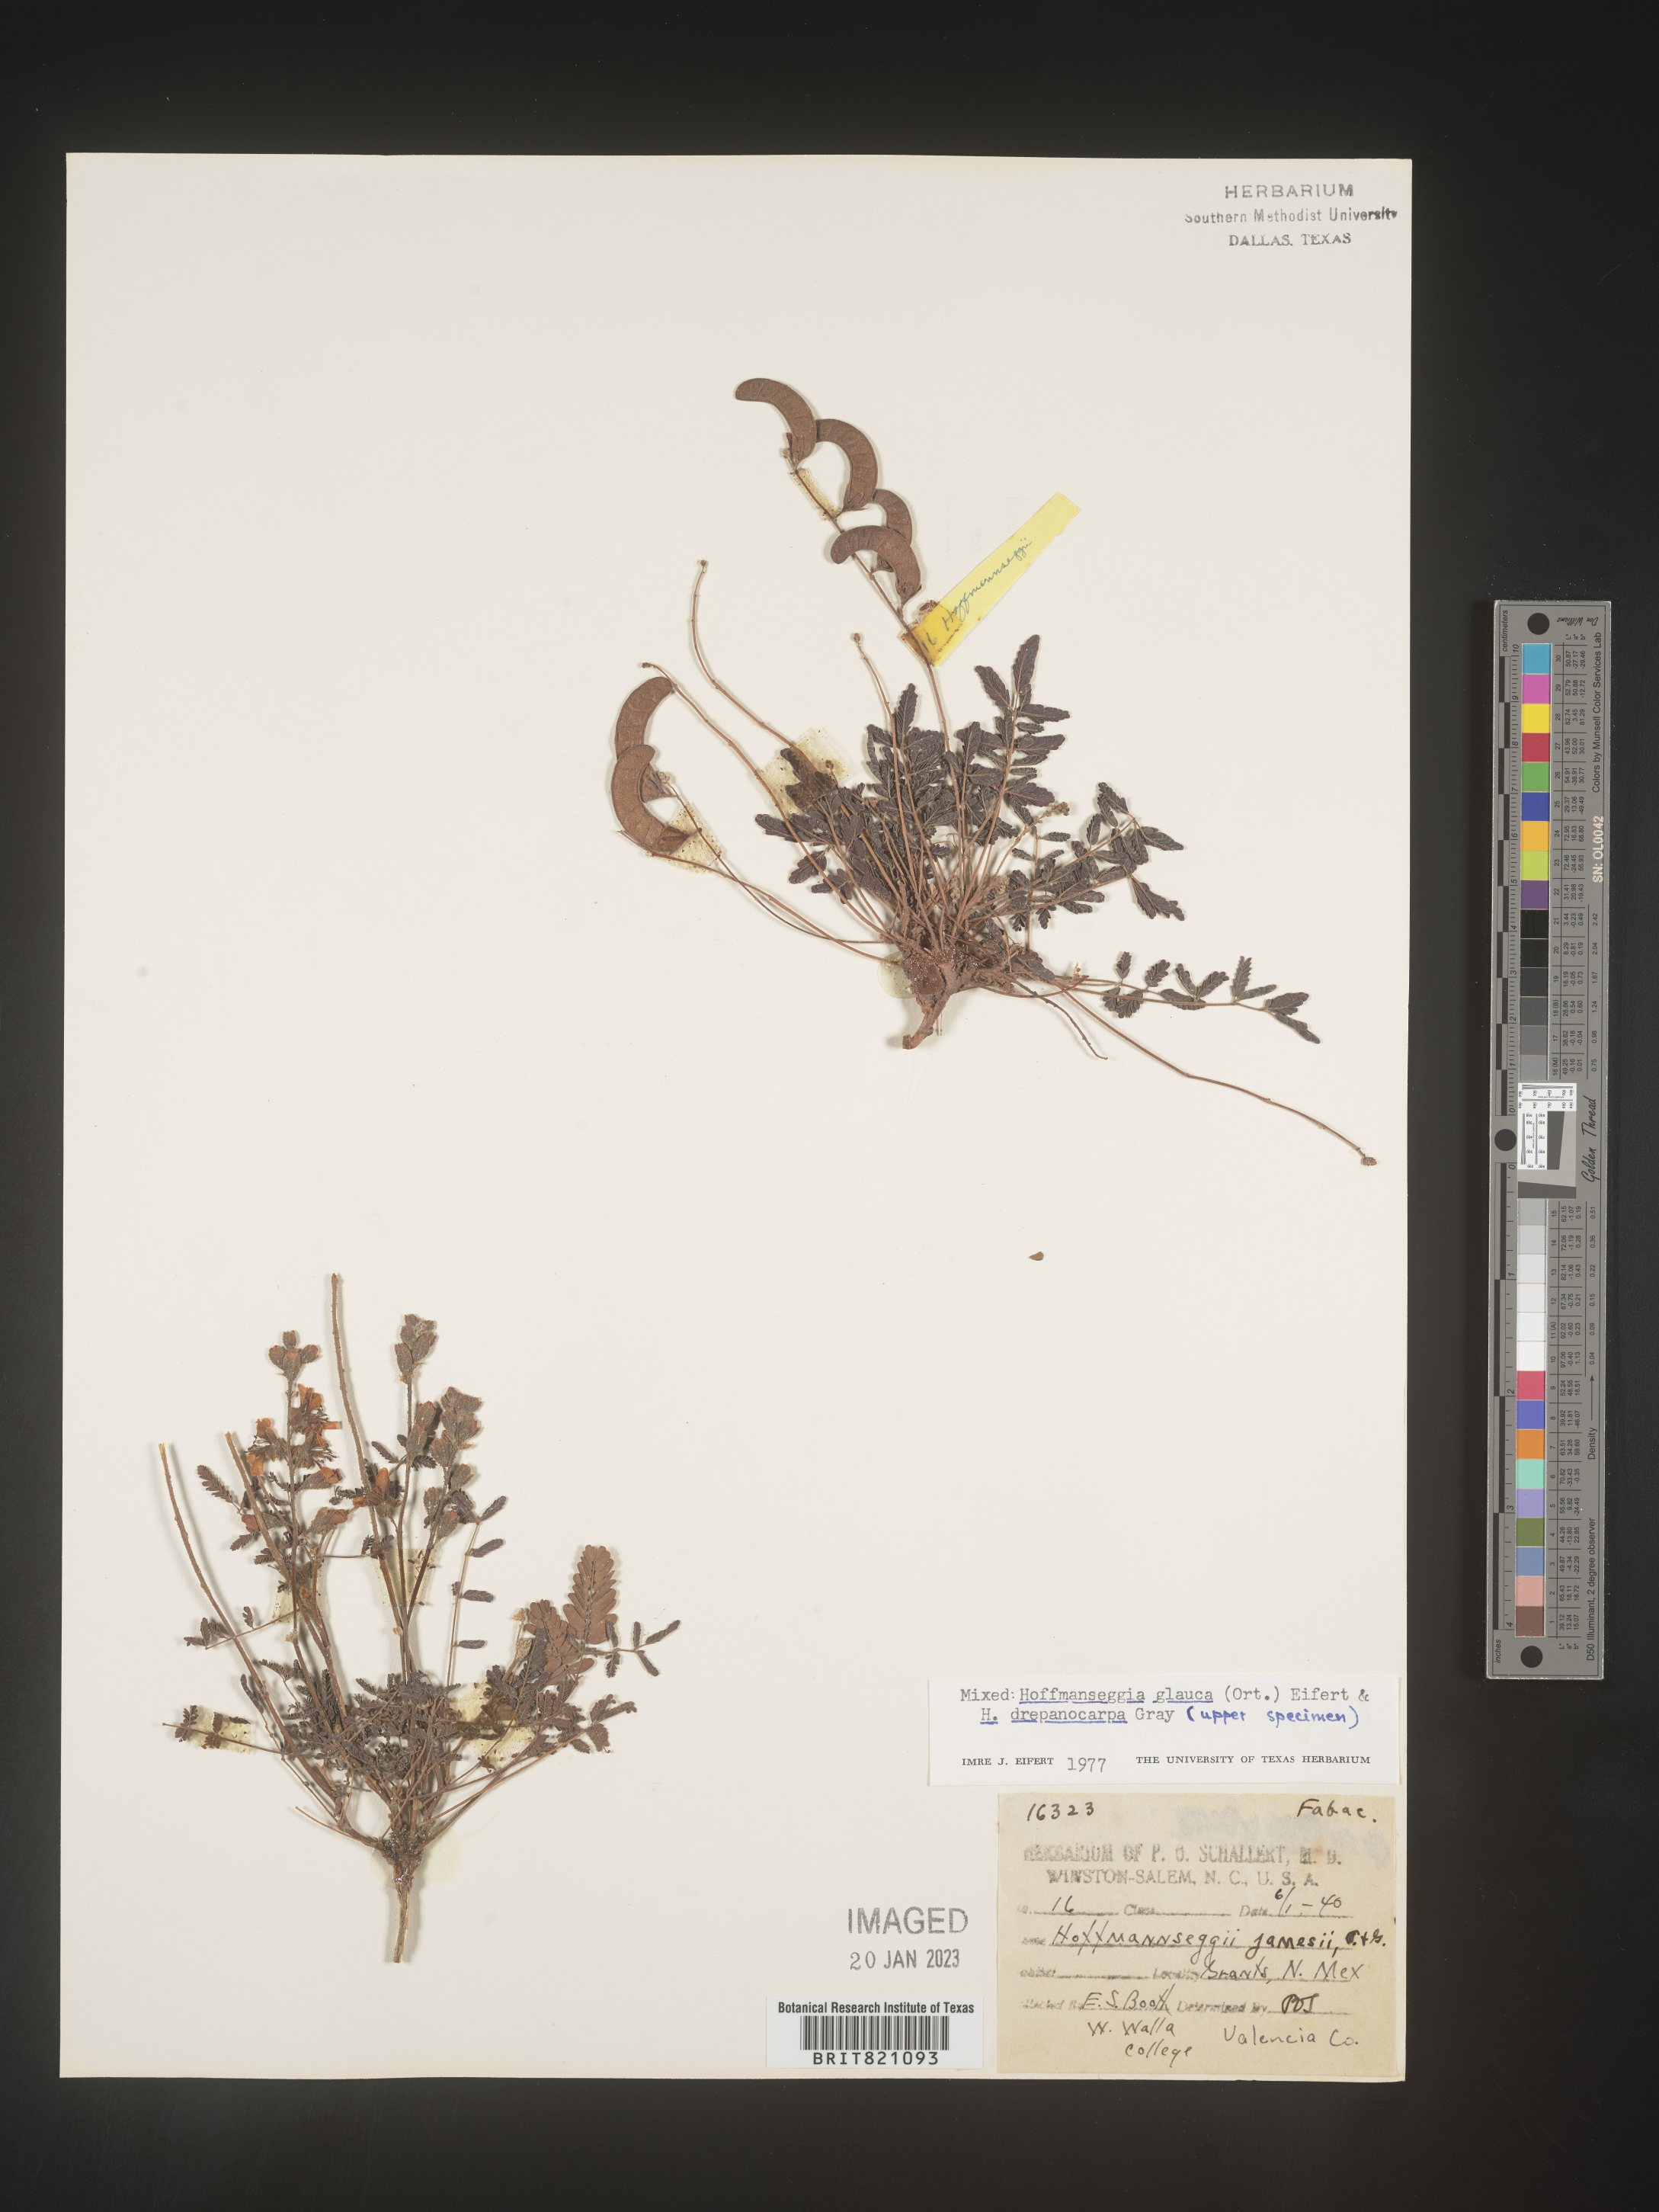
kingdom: Plantae
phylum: Tracheophyta
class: Magnoliopsida
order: Fabales
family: Fabaceae
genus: Hoffmannseggia
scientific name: Hoffmannseggia
